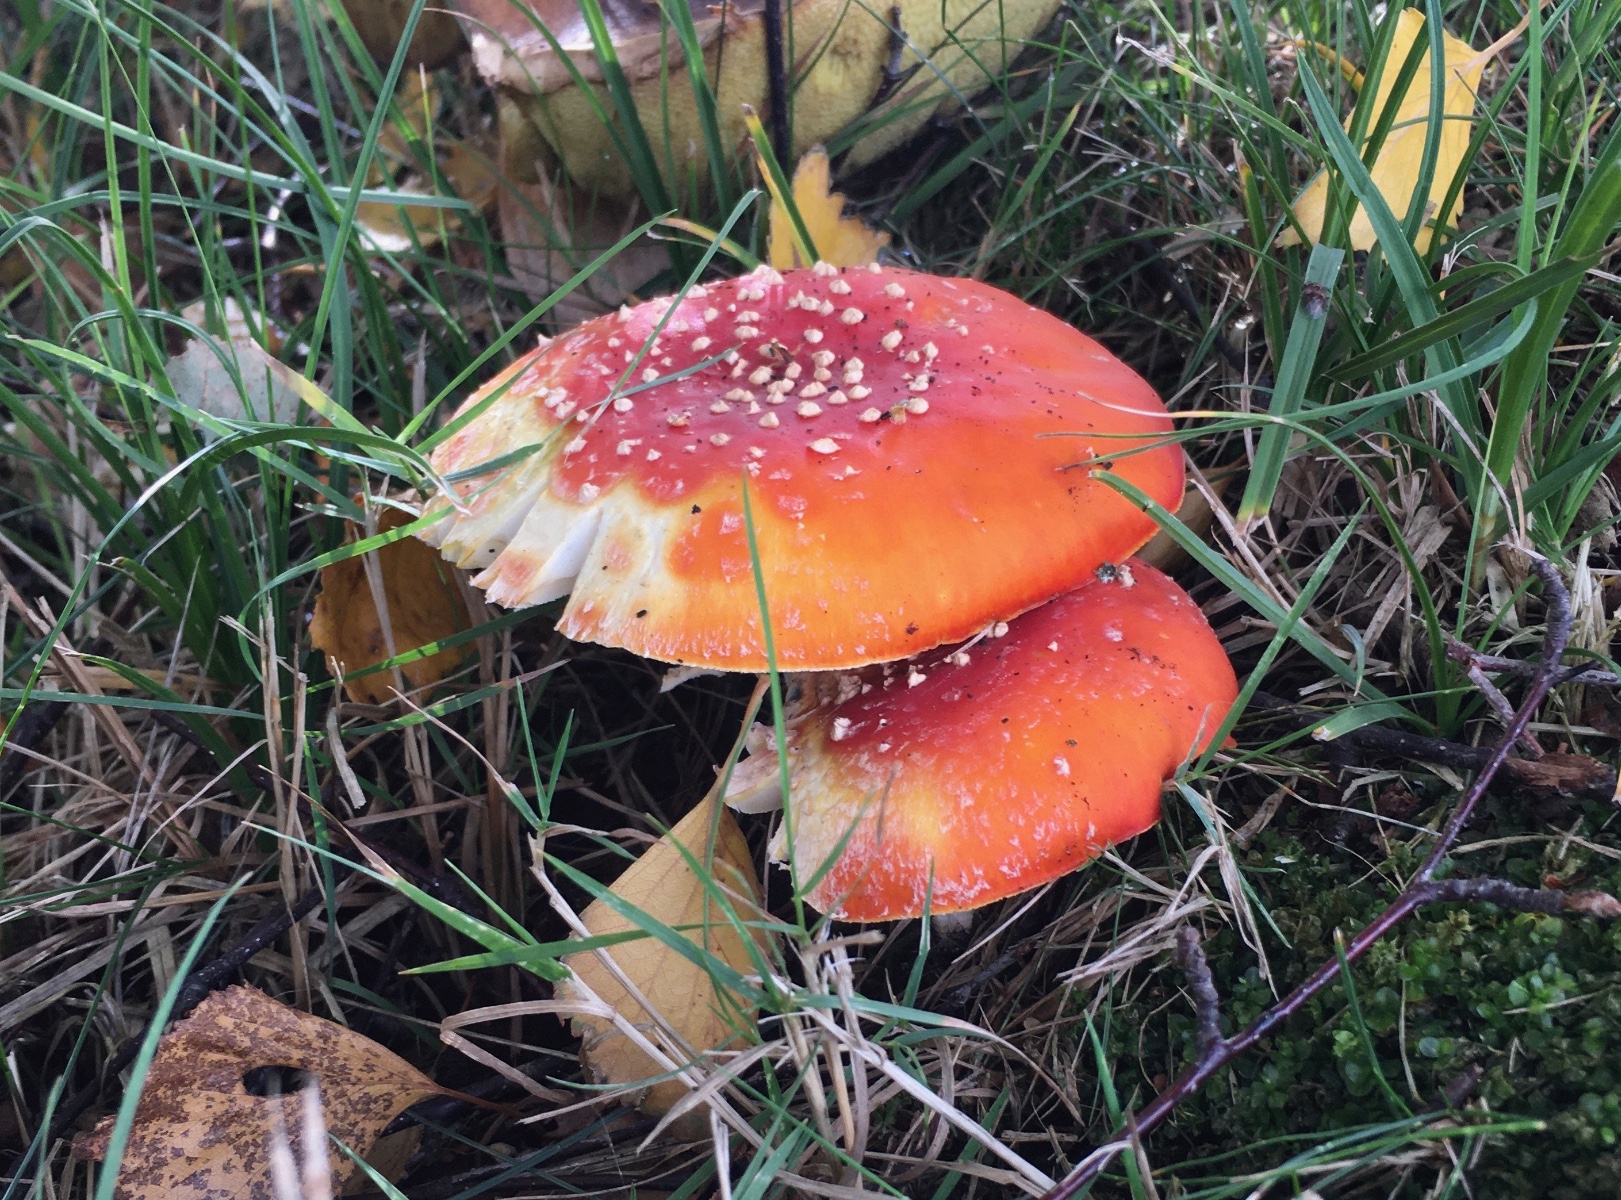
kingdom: Fungi
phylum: Basidiomycota
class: Agaricomycetes
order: Agaricales
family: Amanitaceae
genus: Amanita
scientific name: Amanita muscaria
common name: rød fluesvamp
